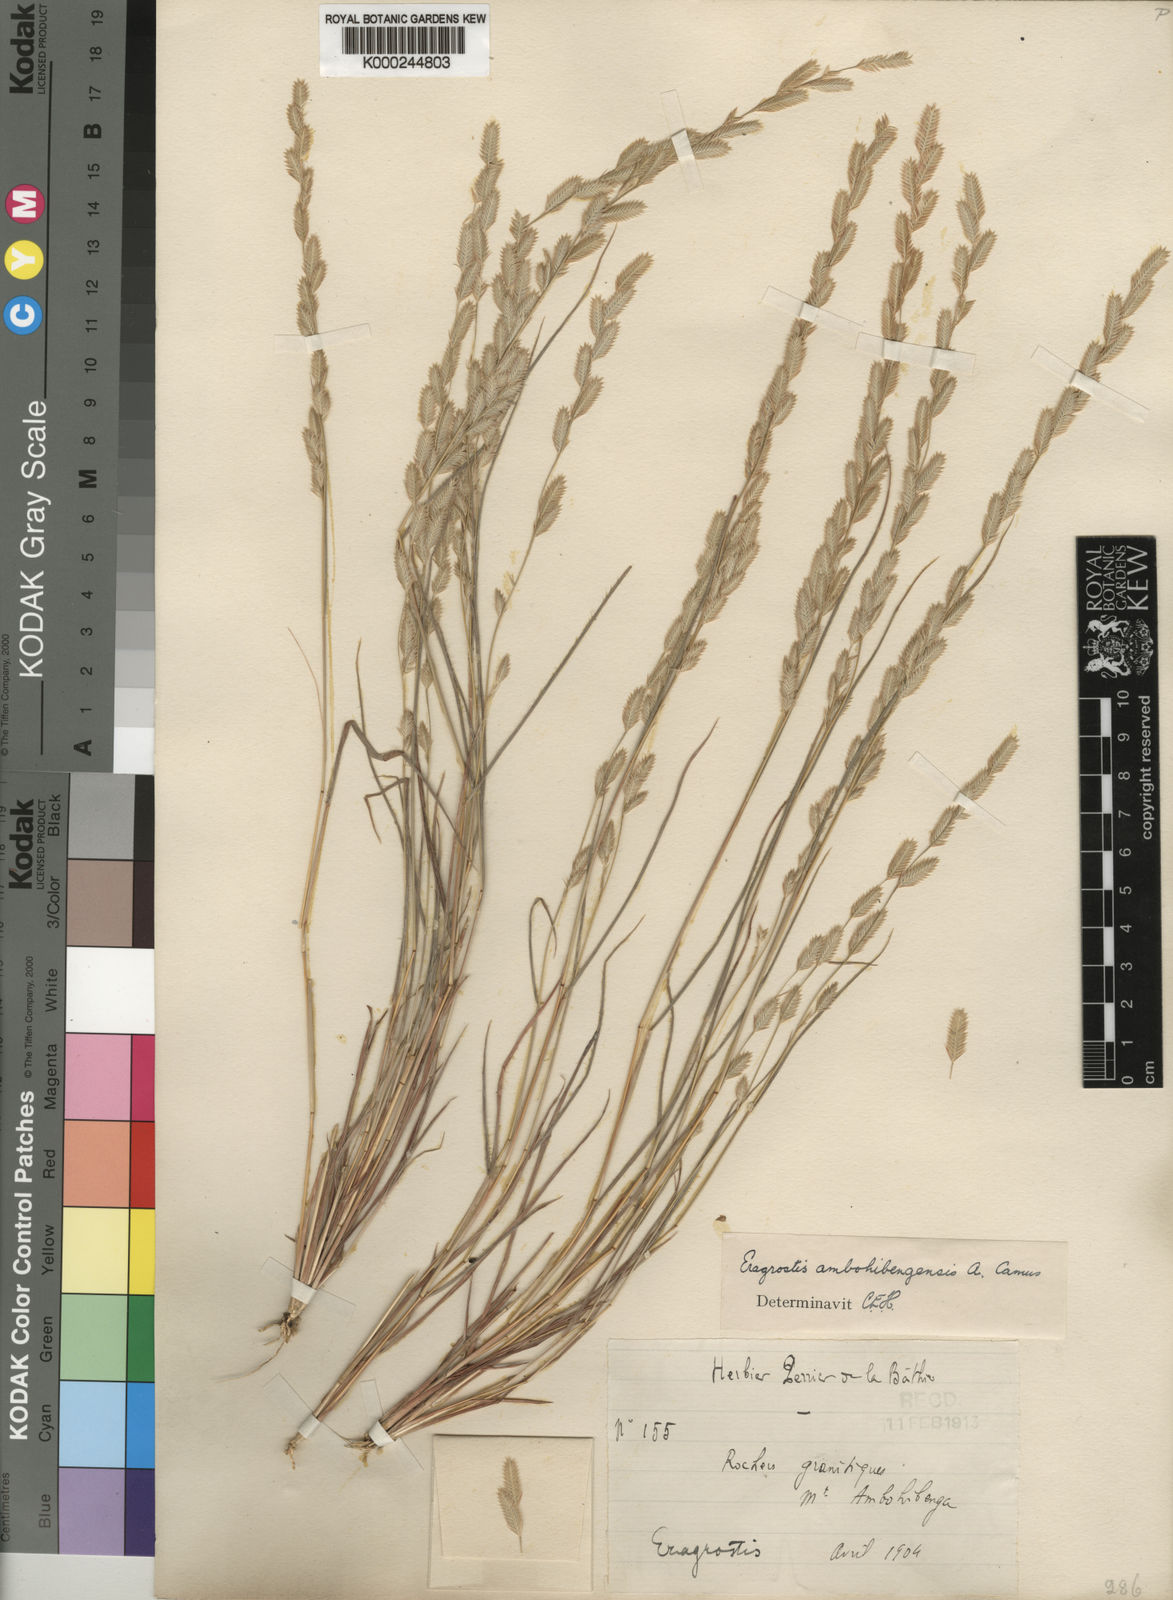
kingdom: Plantae
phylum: Tracheophyta
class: Liliopsida
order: Poales
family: Poaceae
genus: Eragrostis
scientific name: Eragrostis ambohibengensis
